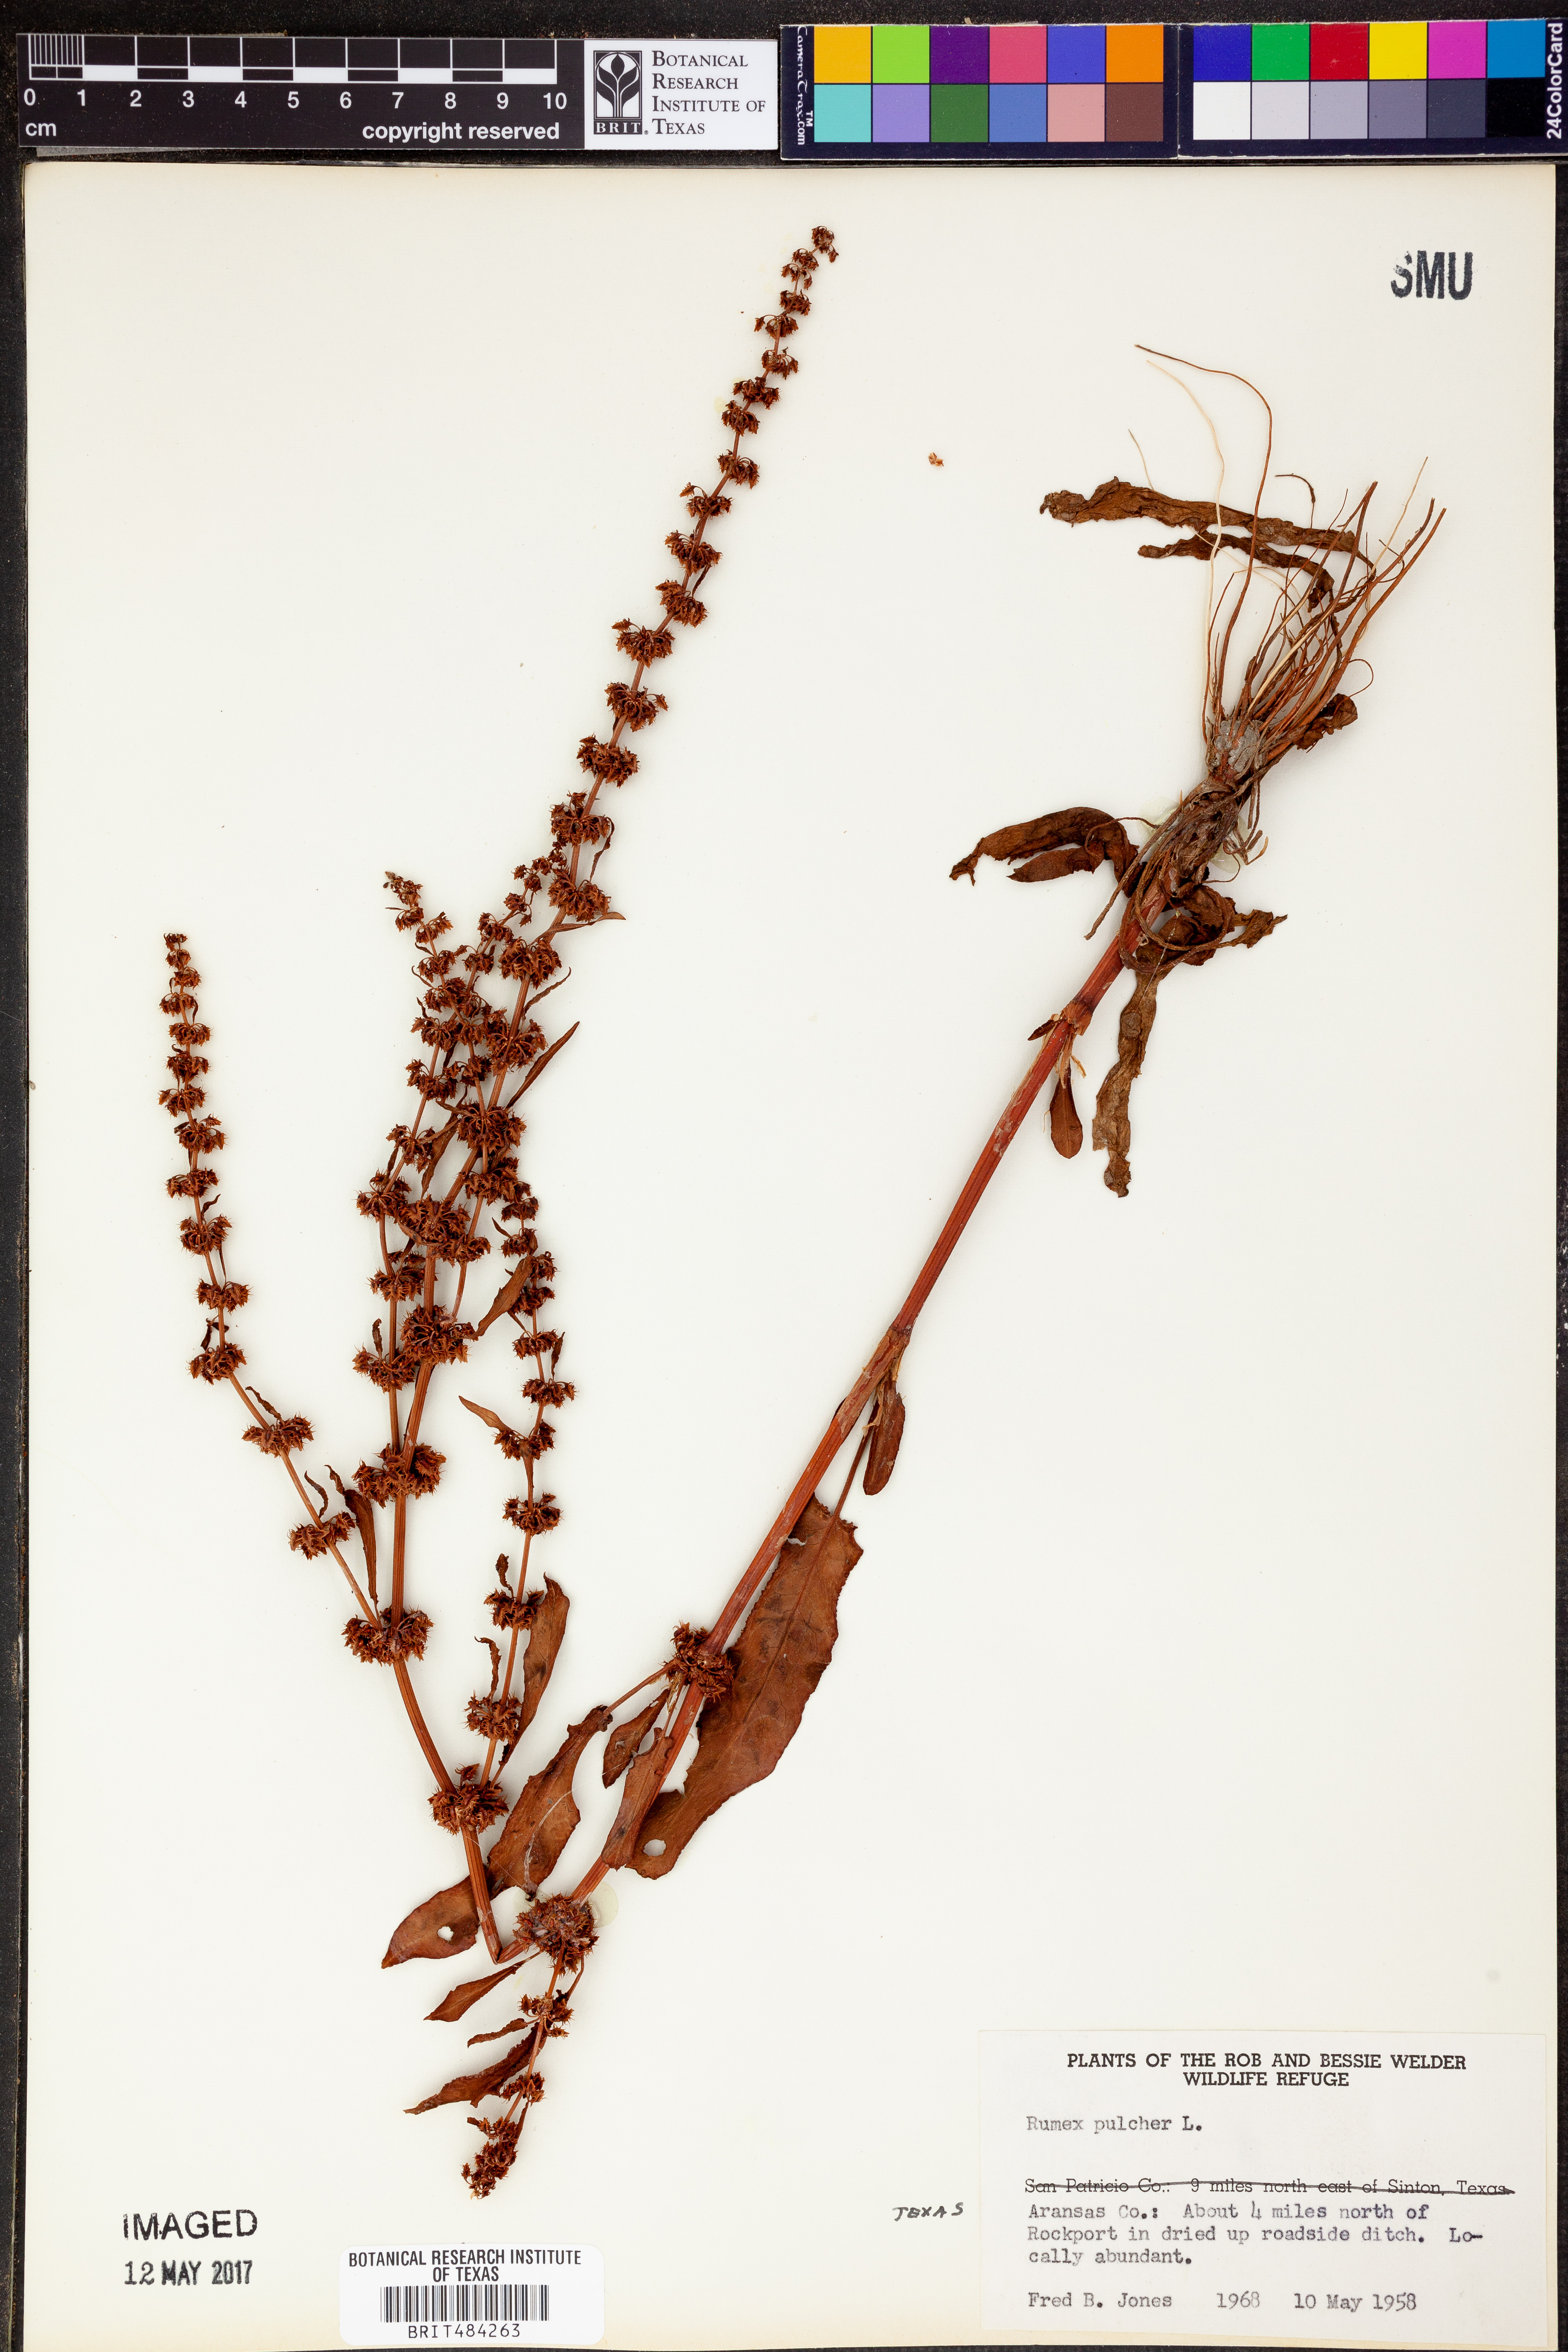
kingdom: Plantae
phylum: Tracheophyta
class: Magnoliopsida
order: Caryophyllales
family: Polygonaceae
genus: Rumex
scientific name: Rumex pulcher
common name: Fiddle dock
